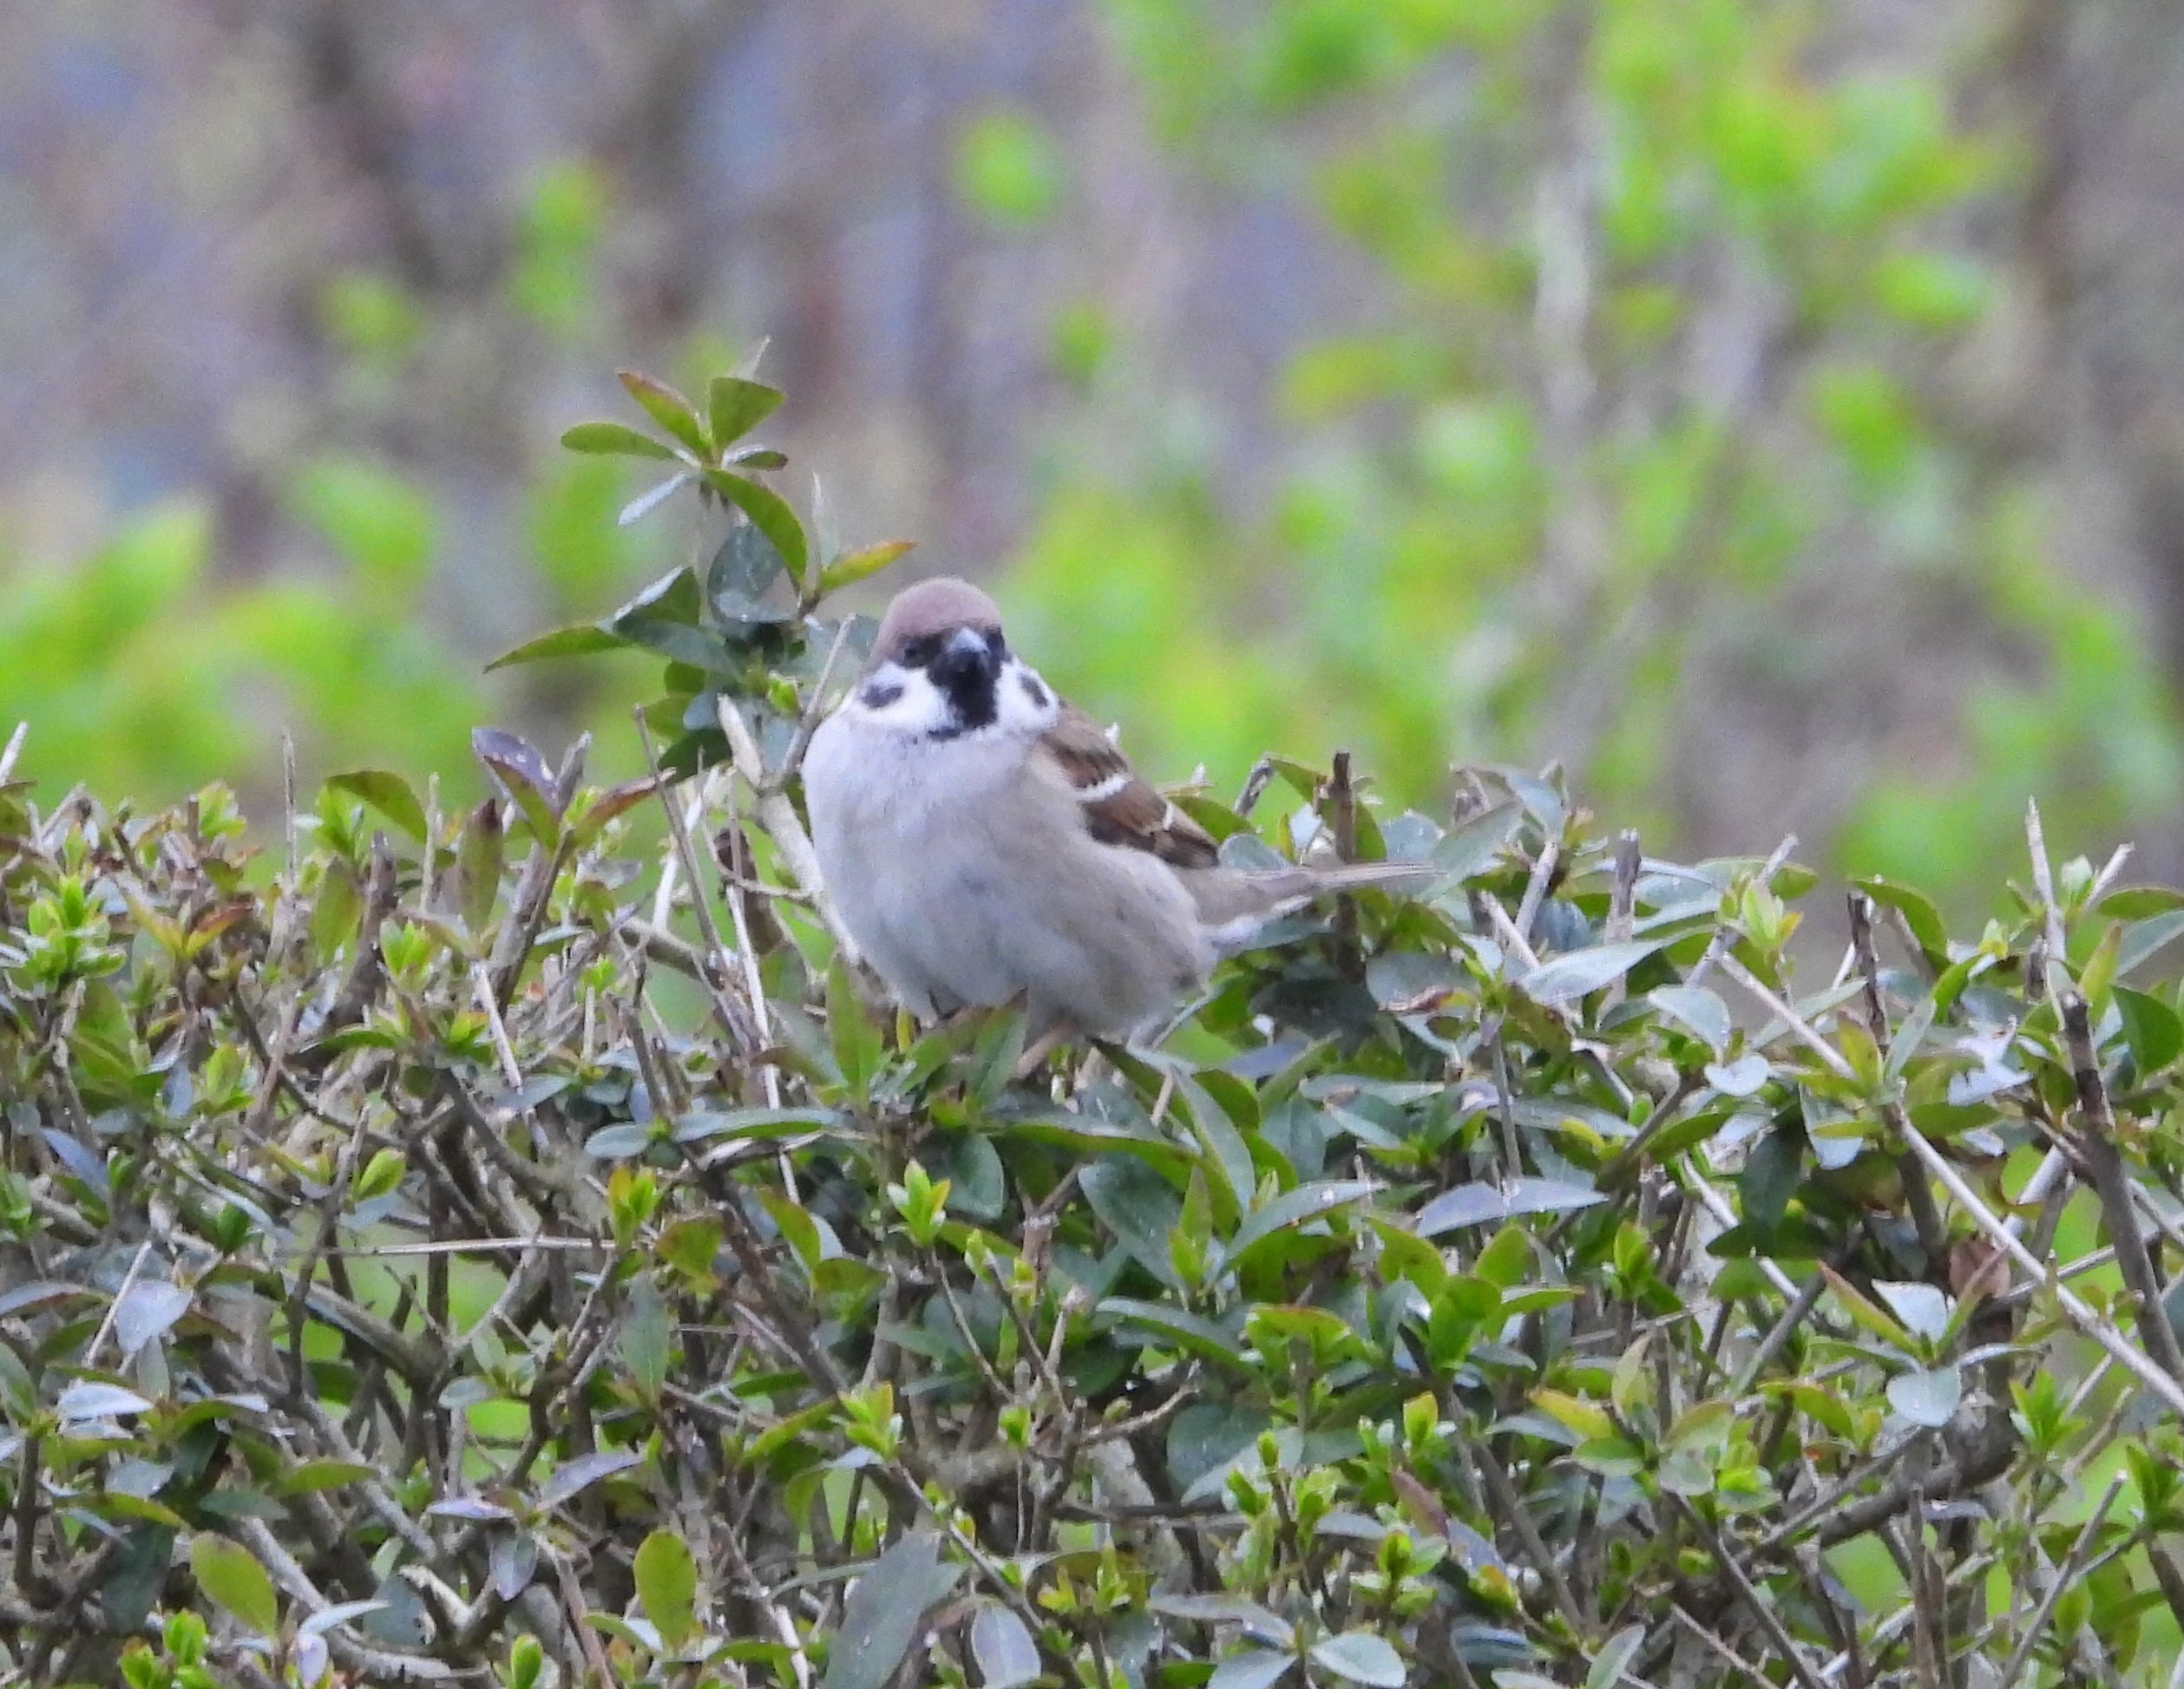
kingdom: Animalia
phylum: Chordata
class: Aves
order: Passeriformes
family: Passeridae
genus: Passer
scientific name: Passer montanus
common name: Skovspurv
